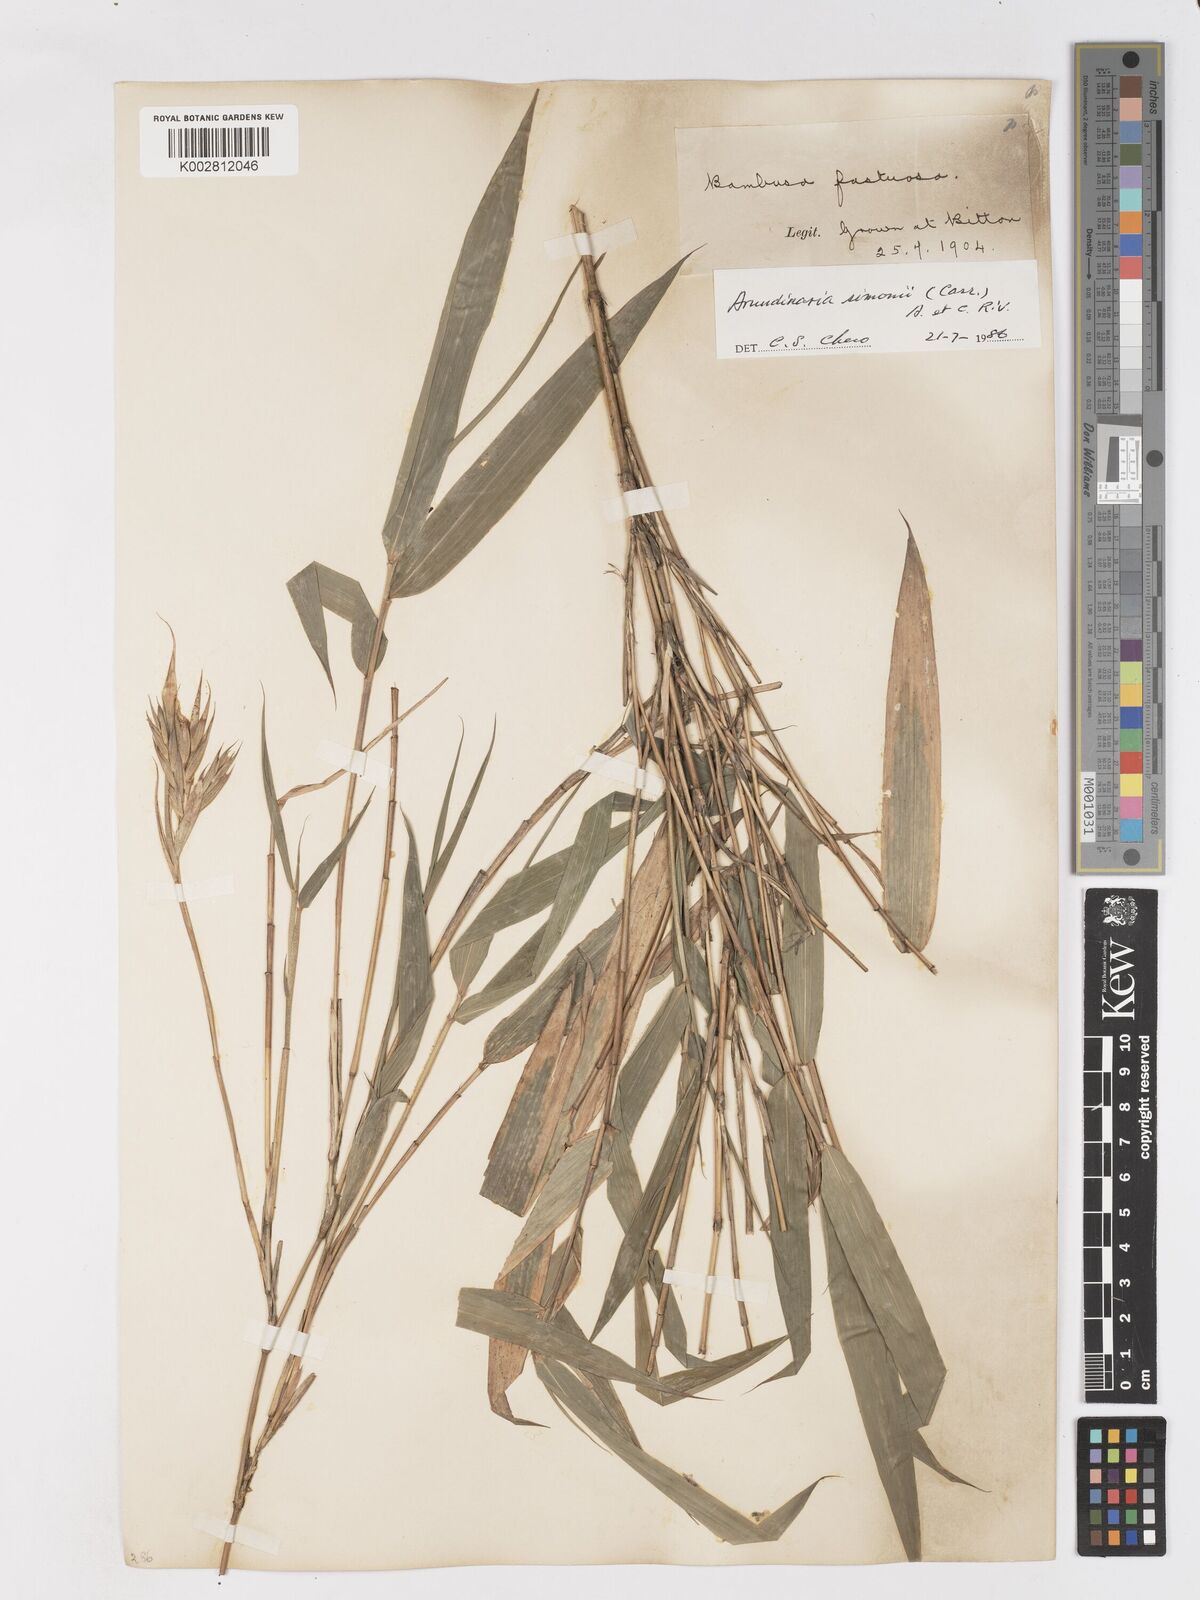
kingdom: Plantae
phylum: Tracheophyta
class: Liliopsida
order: Poales
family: Poaceae
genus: Pleioblastus
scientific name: Pleioblastus simonii
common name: Simon bamboo
